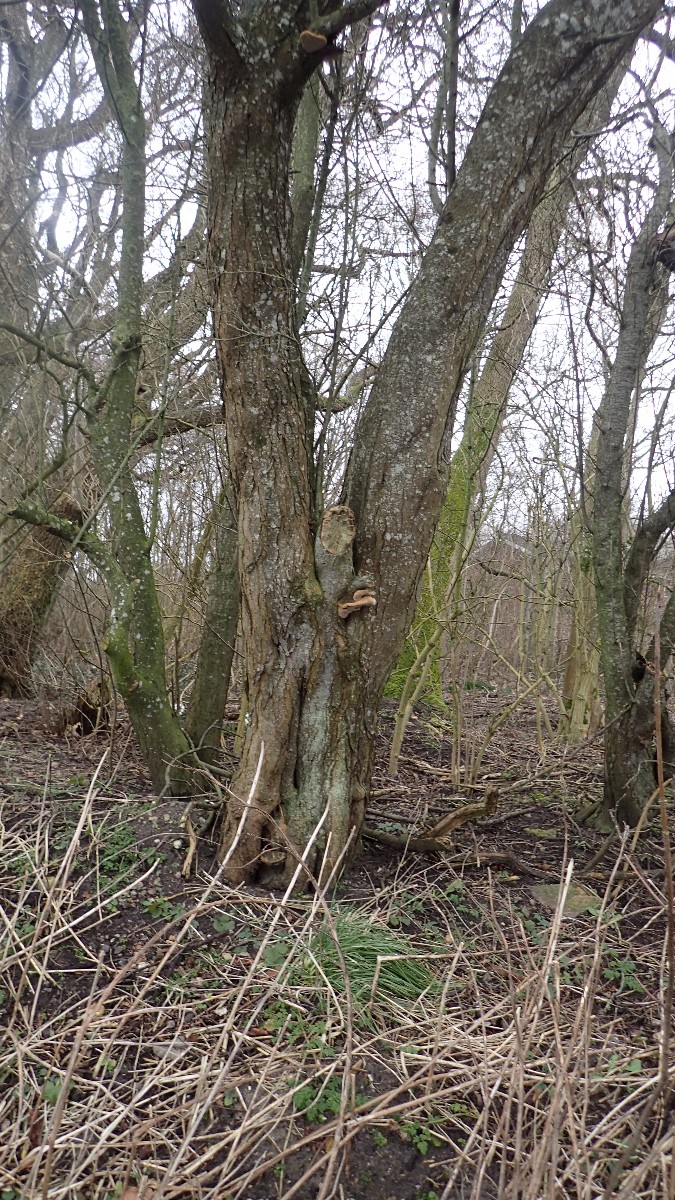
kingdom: Fungi
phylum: Basidiomycota
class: Agaricomycetes
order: Hymenochaetales
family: Hymenochaetaceae
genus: Phellinus
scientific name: Phellinus pomaceus
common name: blomme-ildporesvamp
